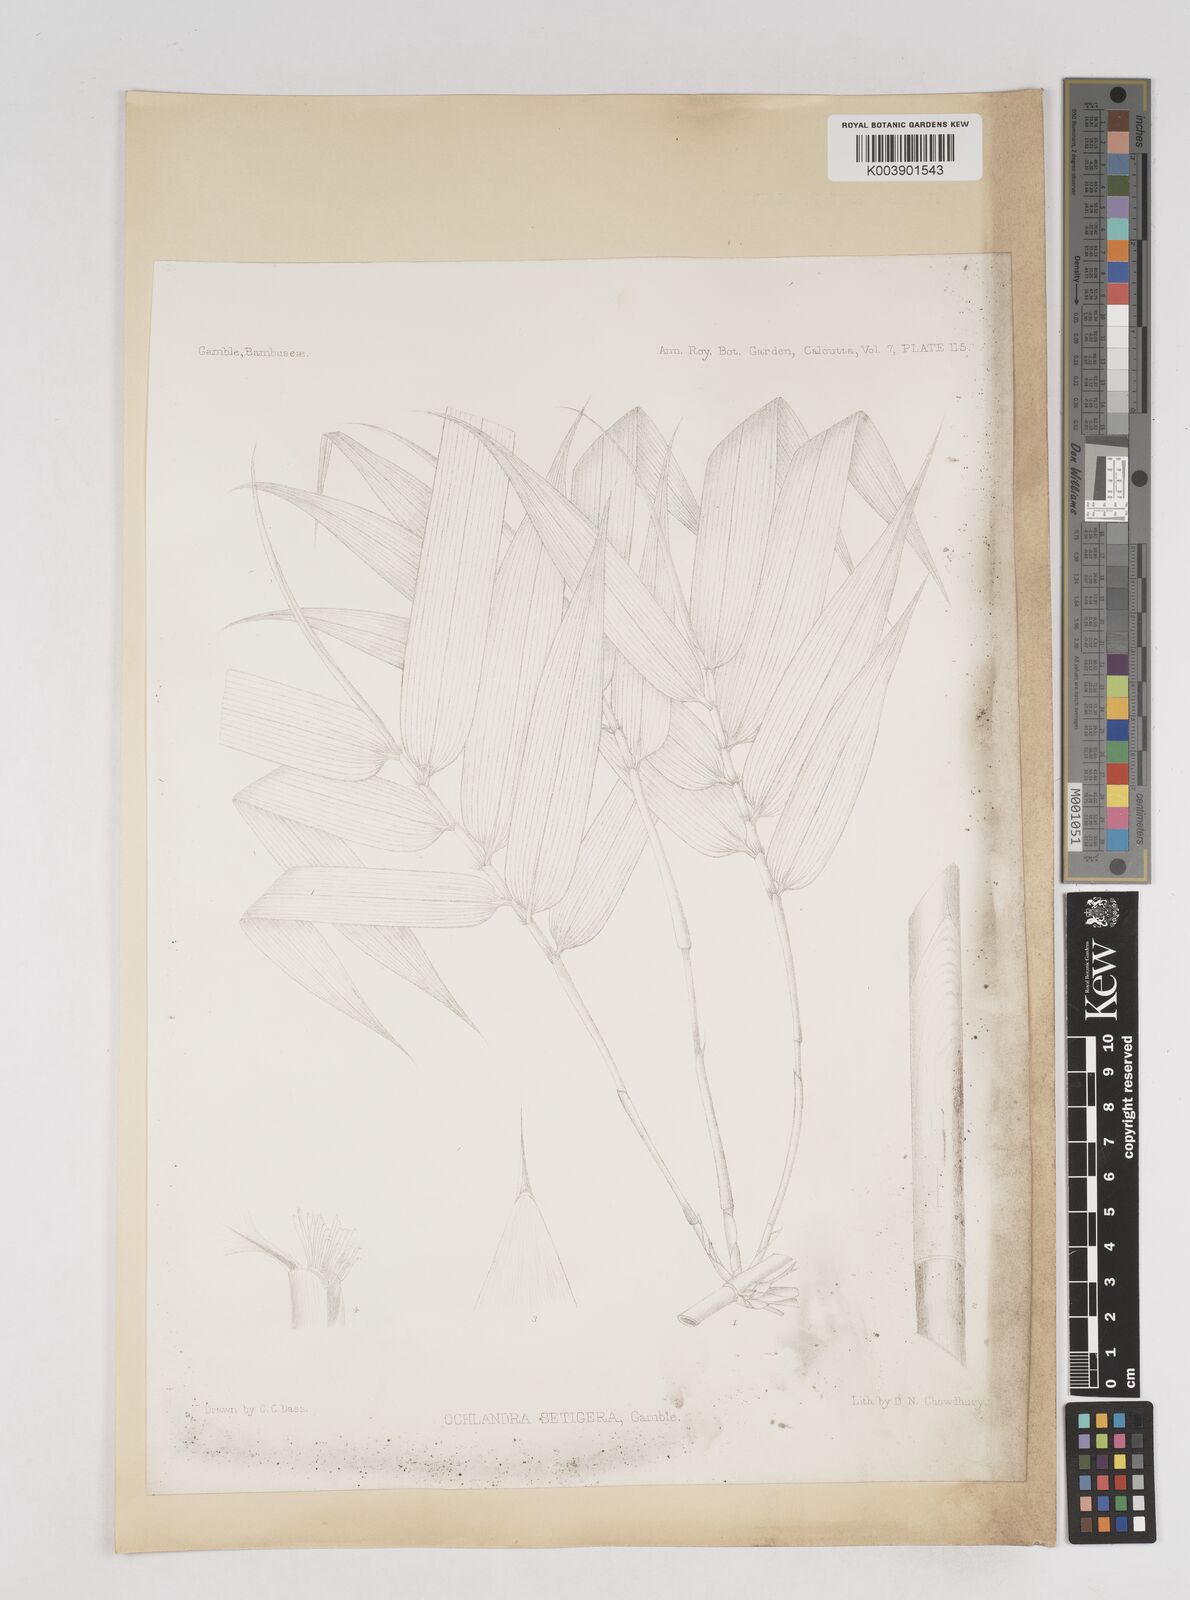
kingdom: Plantae
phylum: Tracheophyta
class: Liliopsida
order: Poales
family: Poaceae
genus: Ochlandra
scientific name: Ochlandra setigera
